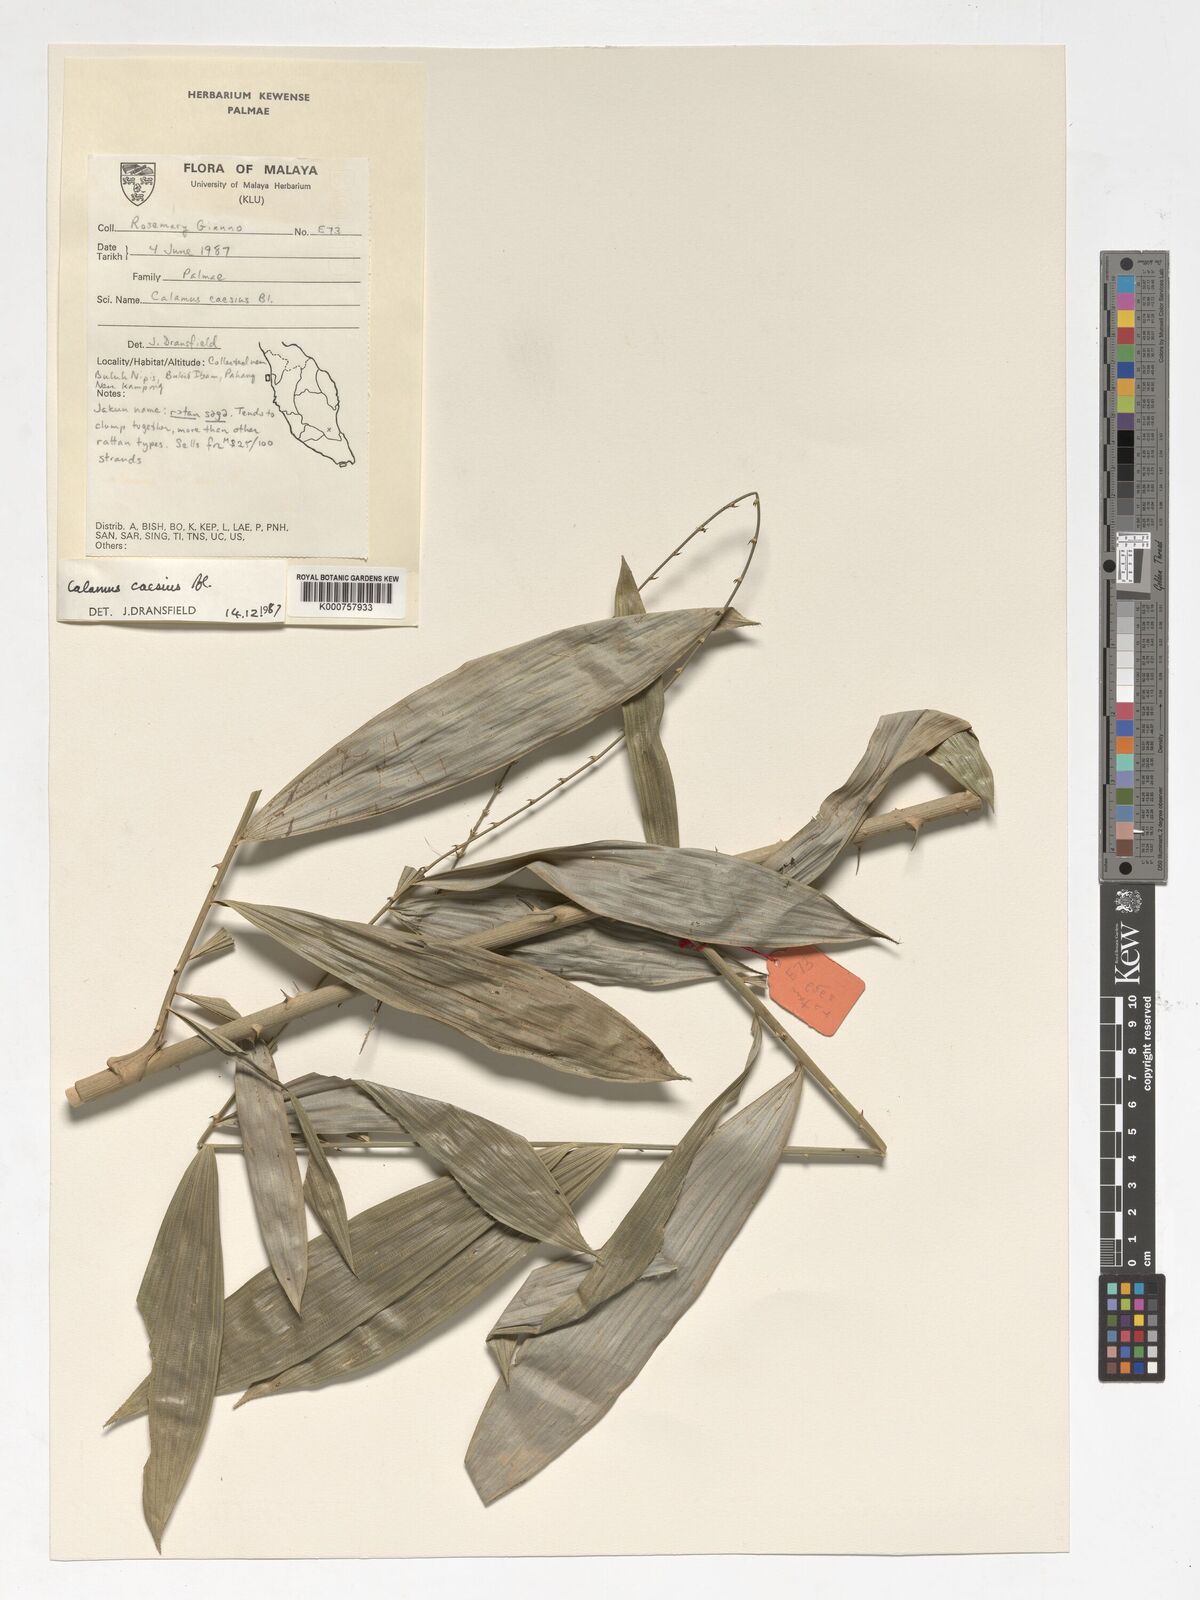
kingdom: Plantae
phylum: Tracheophyta
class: Liliopsida
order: Arecales
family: Arecaceae
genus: Calamus
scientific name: Calamus caesius
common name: Rattan palm
